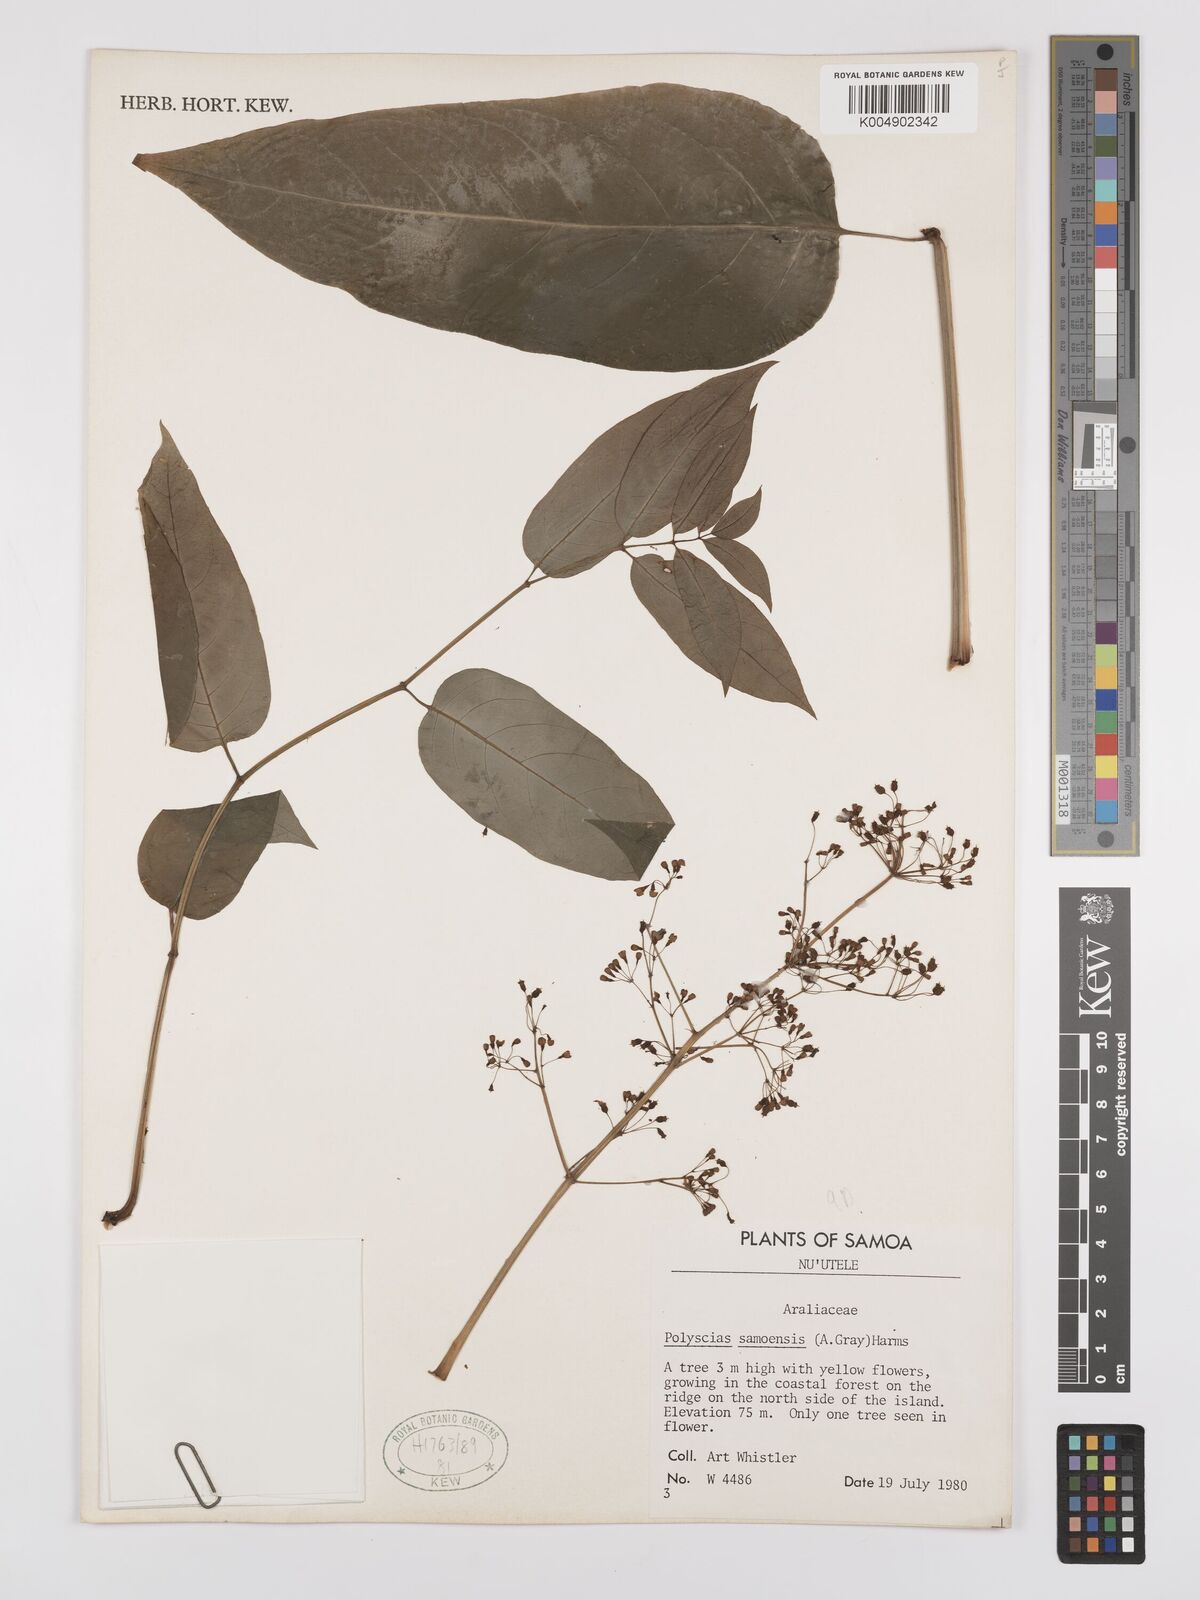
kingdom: Plantae
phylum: Tracheophyta
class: Magnoliopsida
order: Apiales
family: Araliaceae
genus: Polyscias
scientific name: Polyscias samoensis
